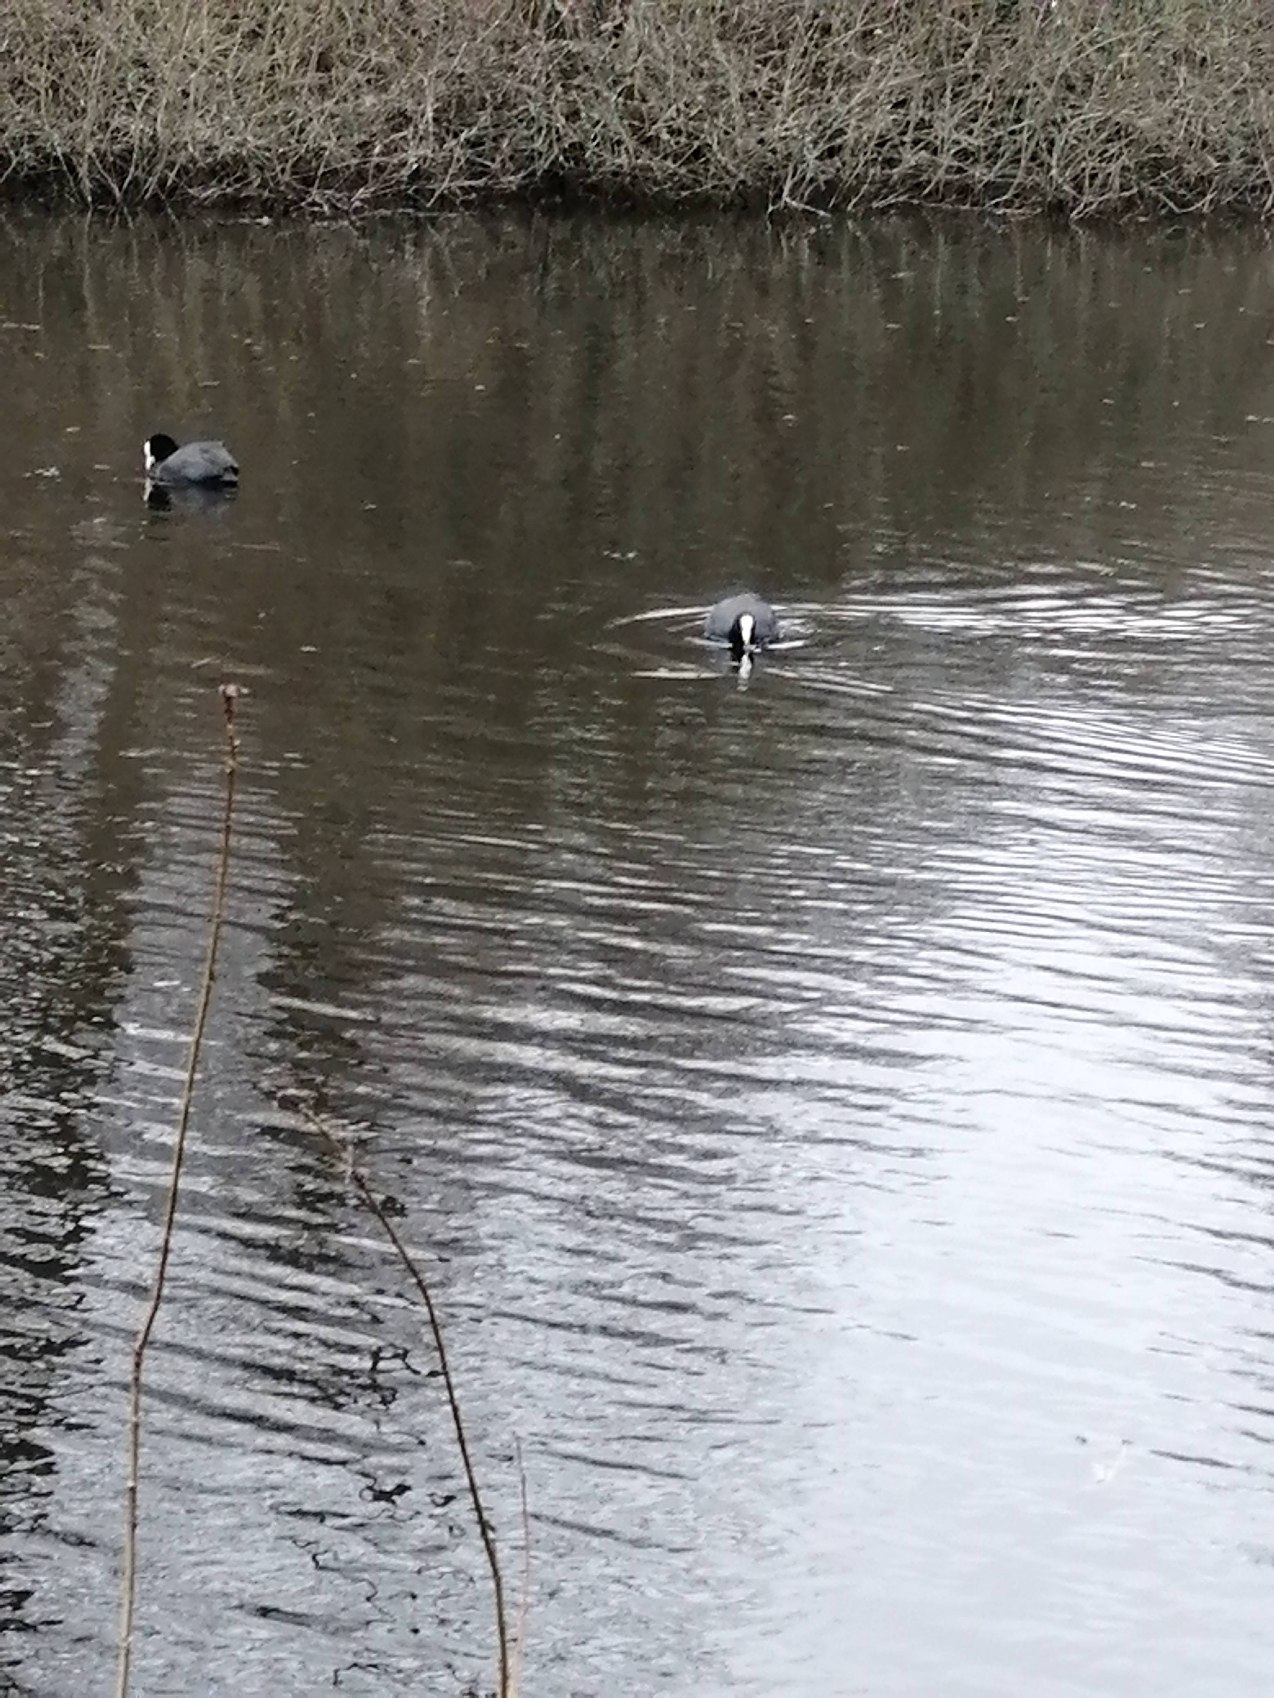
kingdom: Animalia
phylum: Chordata
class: Aves
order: Gruiformes
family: Rallidae
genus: Fulica
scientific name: Fulica atra
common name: Blishøne
